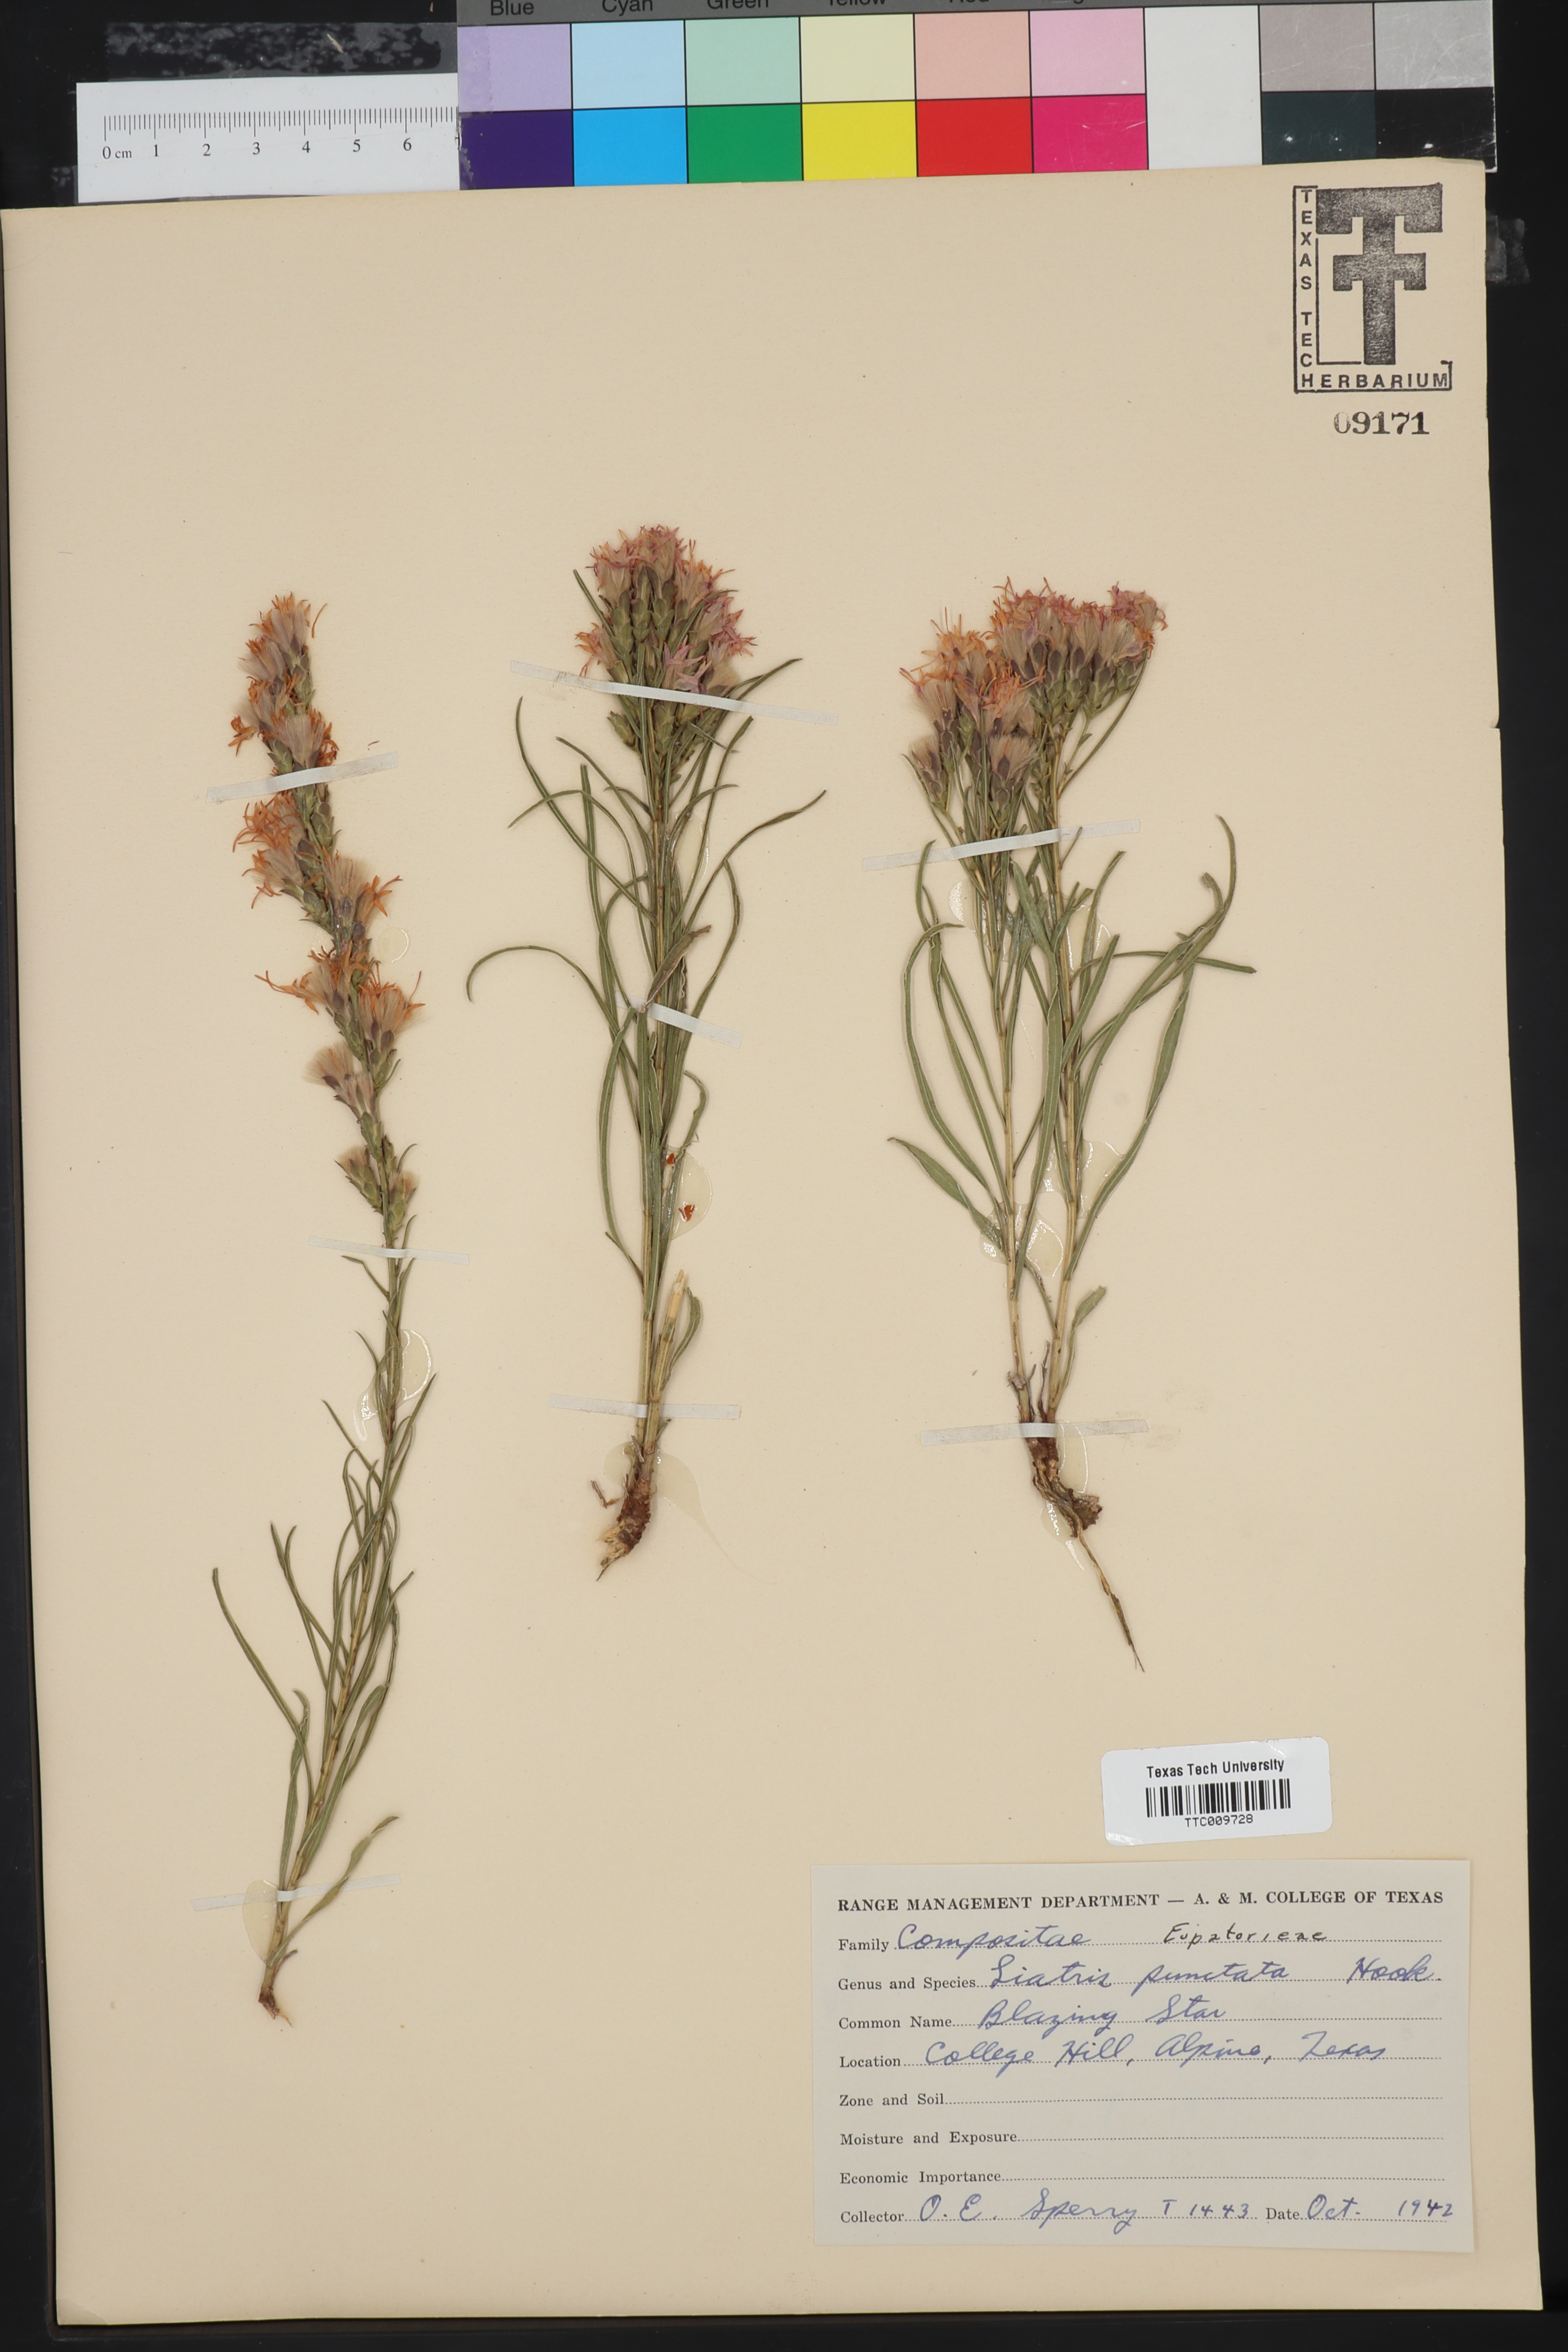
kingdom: Plantae
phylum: Tracheophyta
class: Magnoliopsida
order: Asterales
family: Asteraceae
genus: Liatris
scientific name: Liatris punctata
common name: Dotted gayfeather
